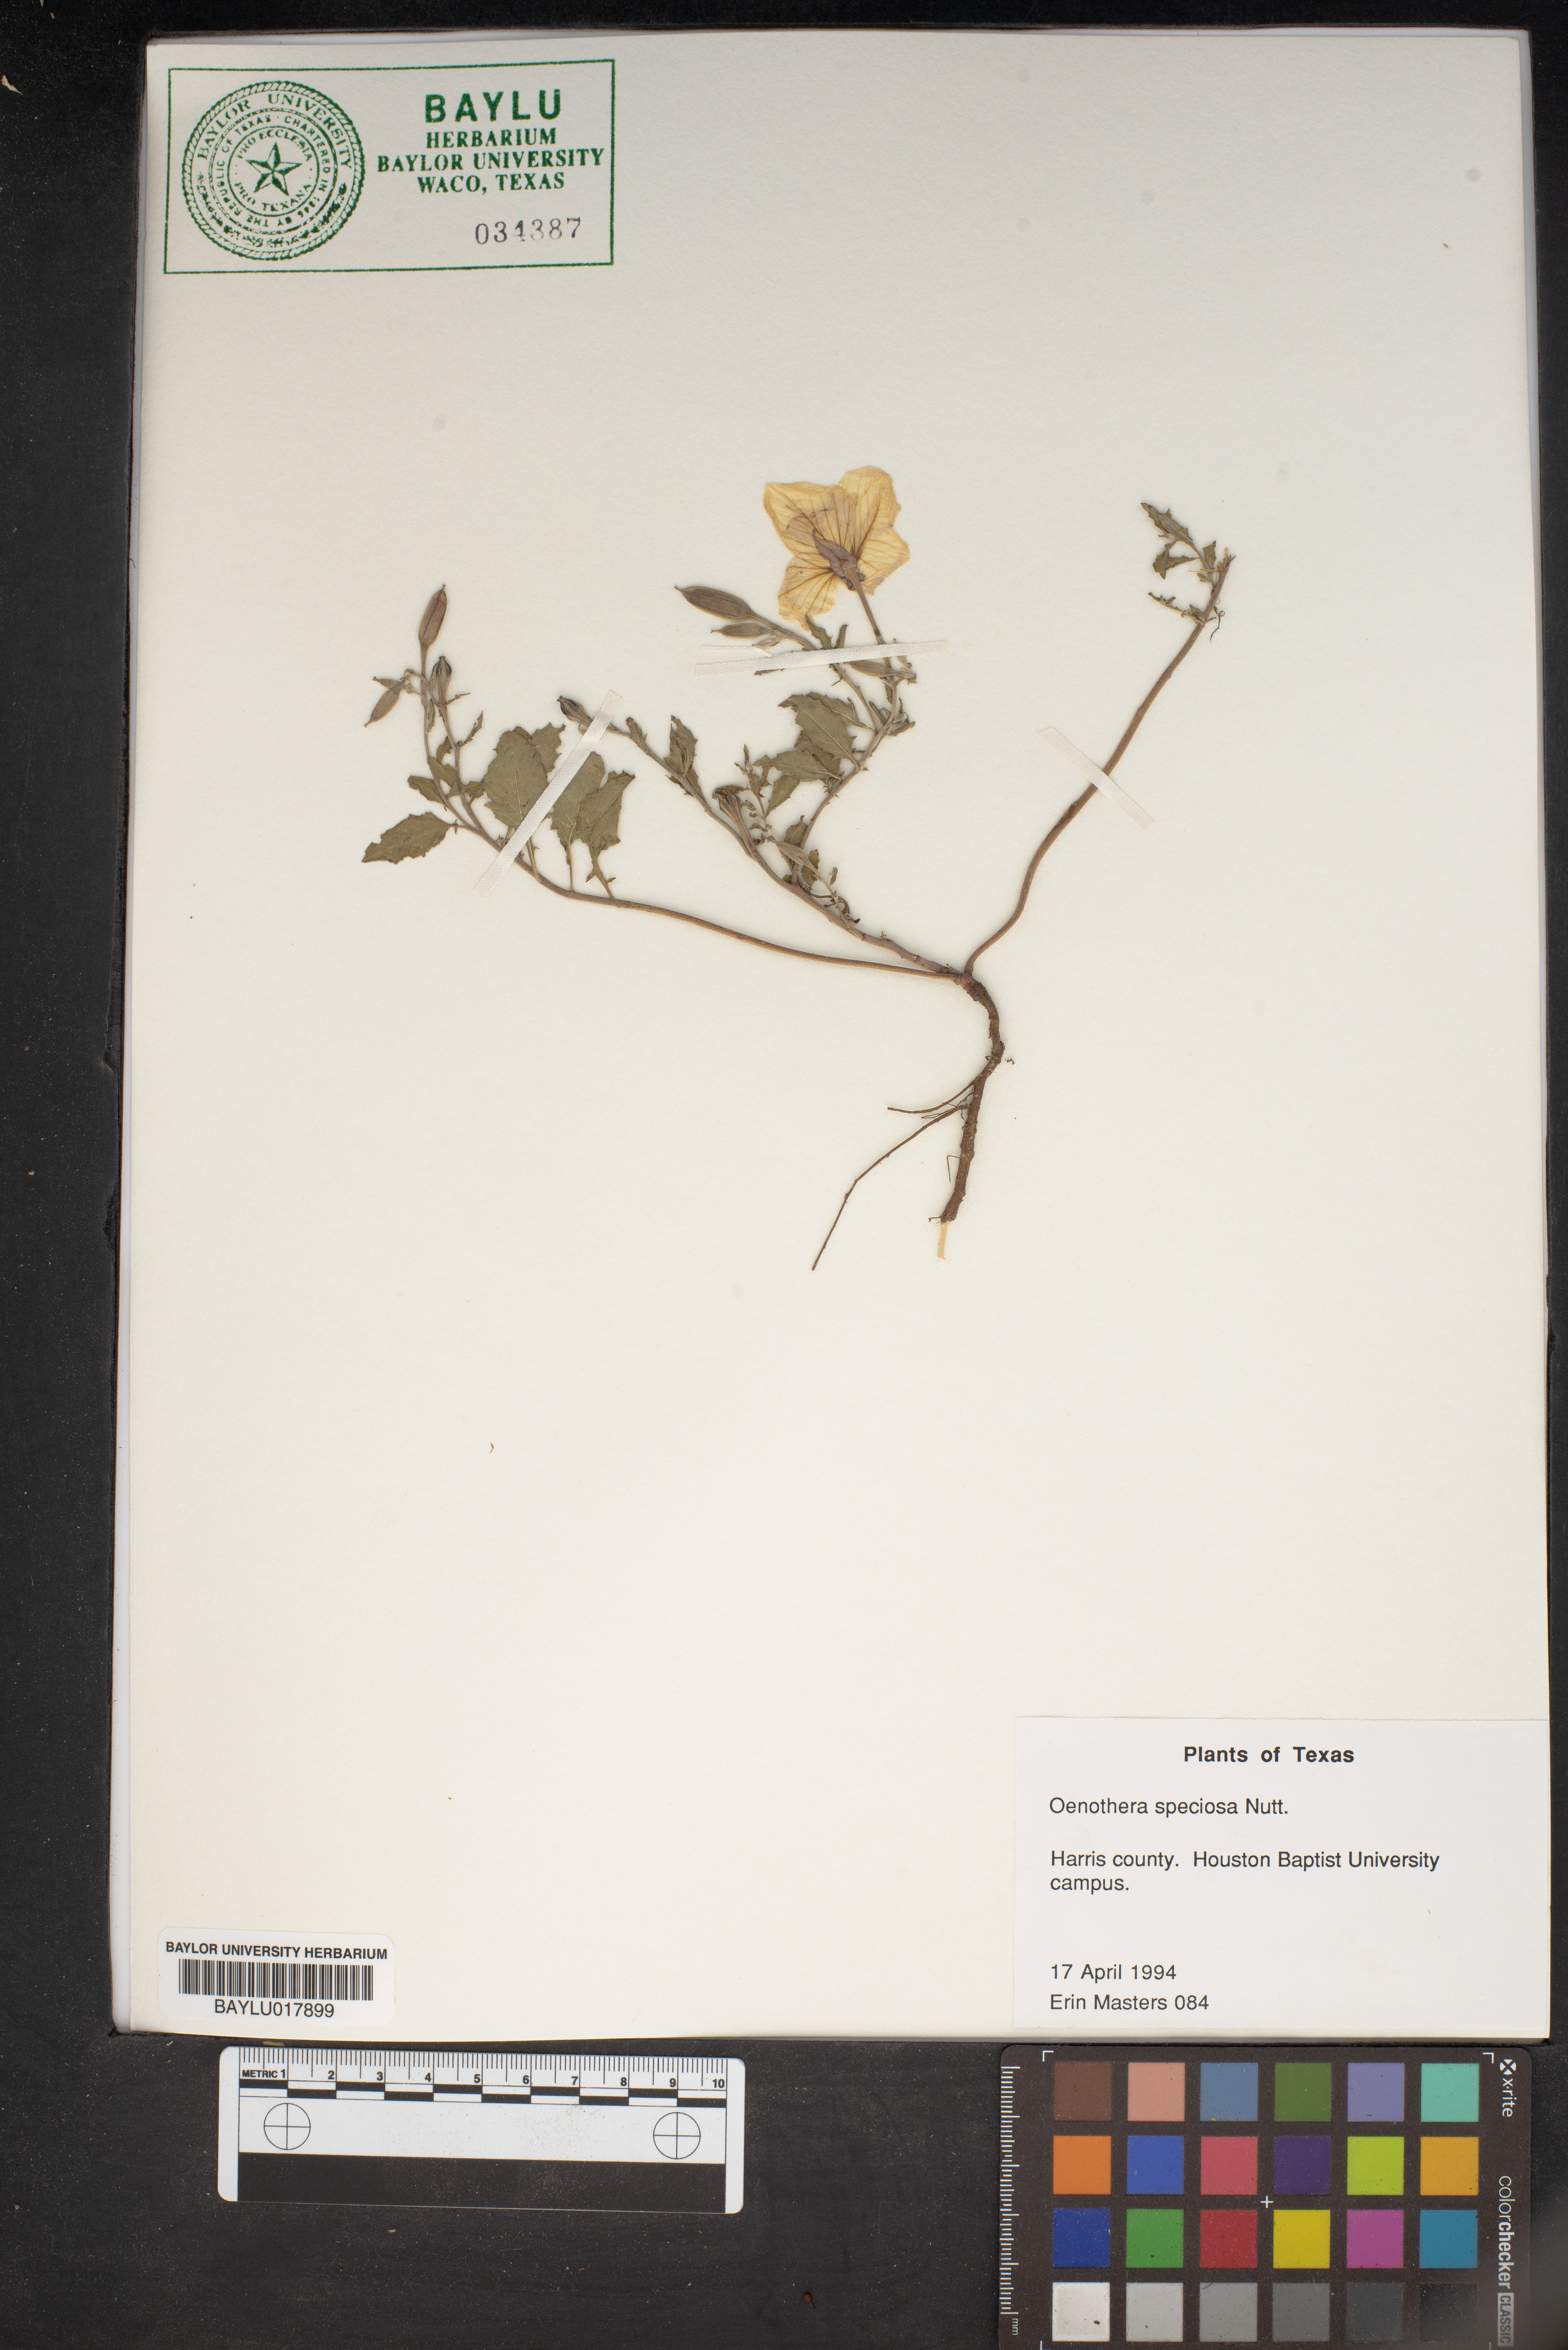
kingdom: Plantae
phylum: Tracheophyta
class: Magnoliopsida
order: Myrtales
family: Onagraceae
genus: Oenothera
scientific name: Oenothera speciosa
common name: White evening-primrose
